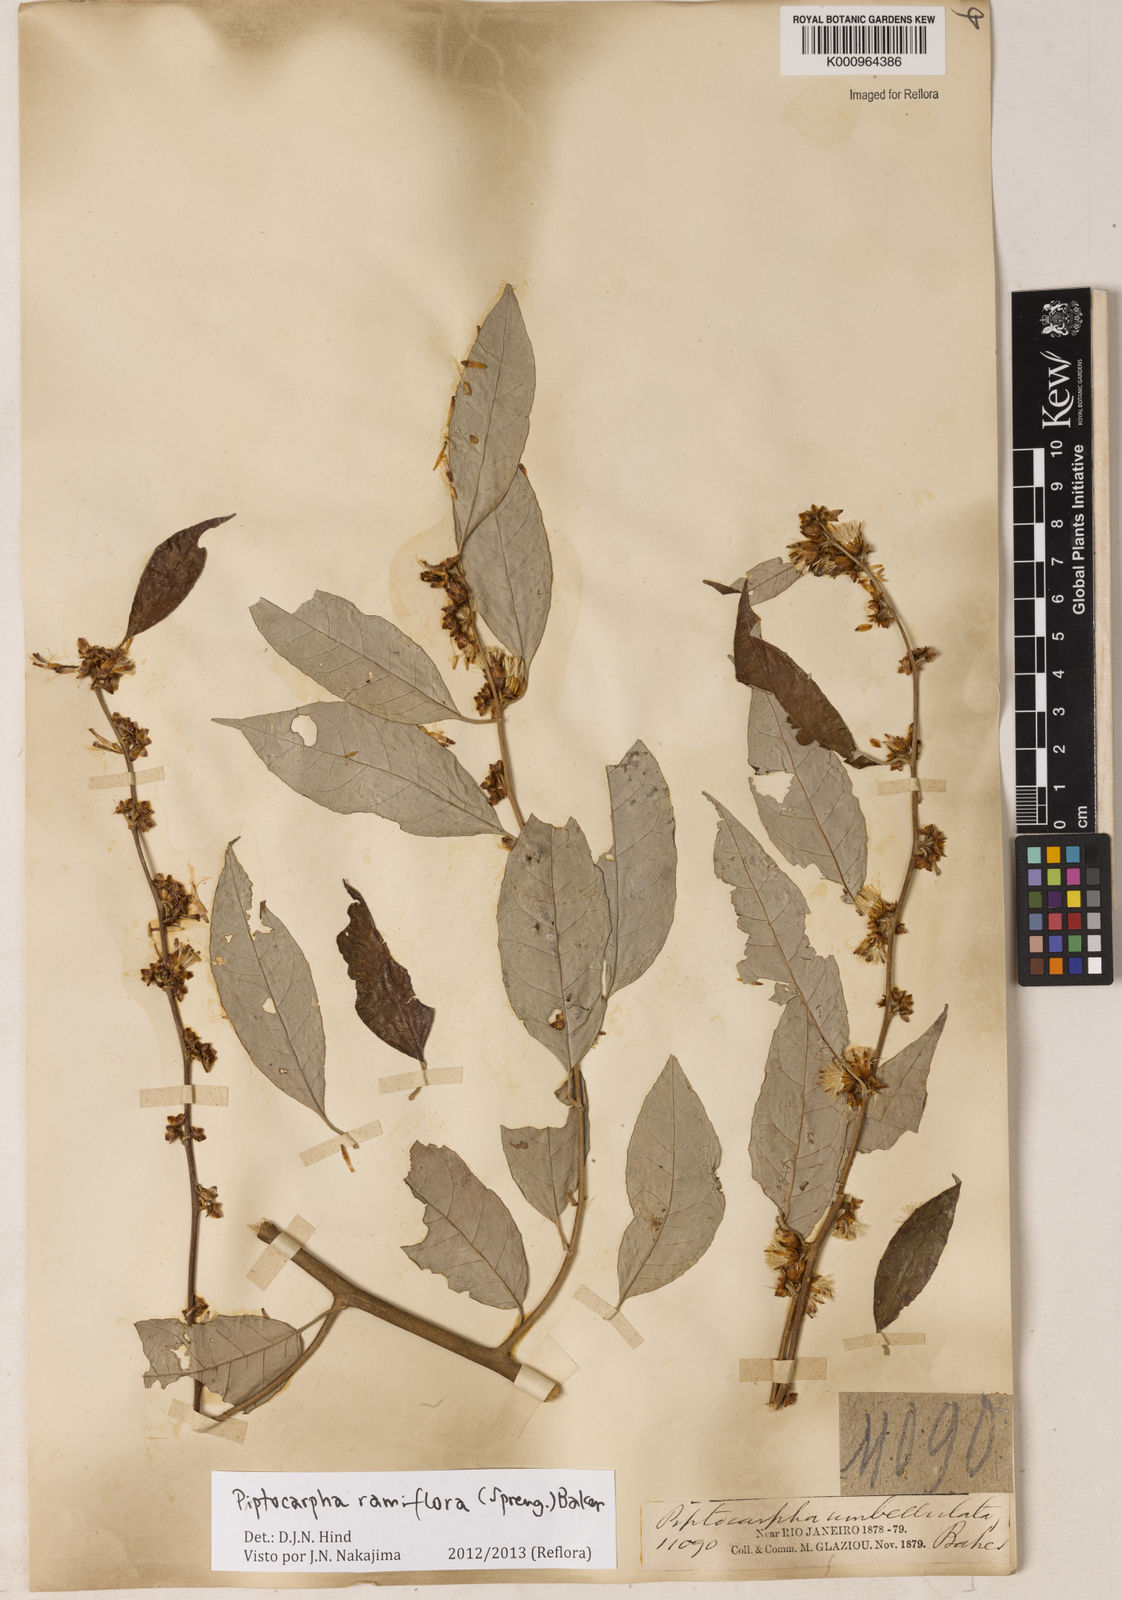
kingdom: Plantae
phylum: Tracheophyta
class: Magnoliopsida
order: Asterales
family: Asteraceae
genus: Piptocarpha
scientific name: Piptocarpha ramiflora
